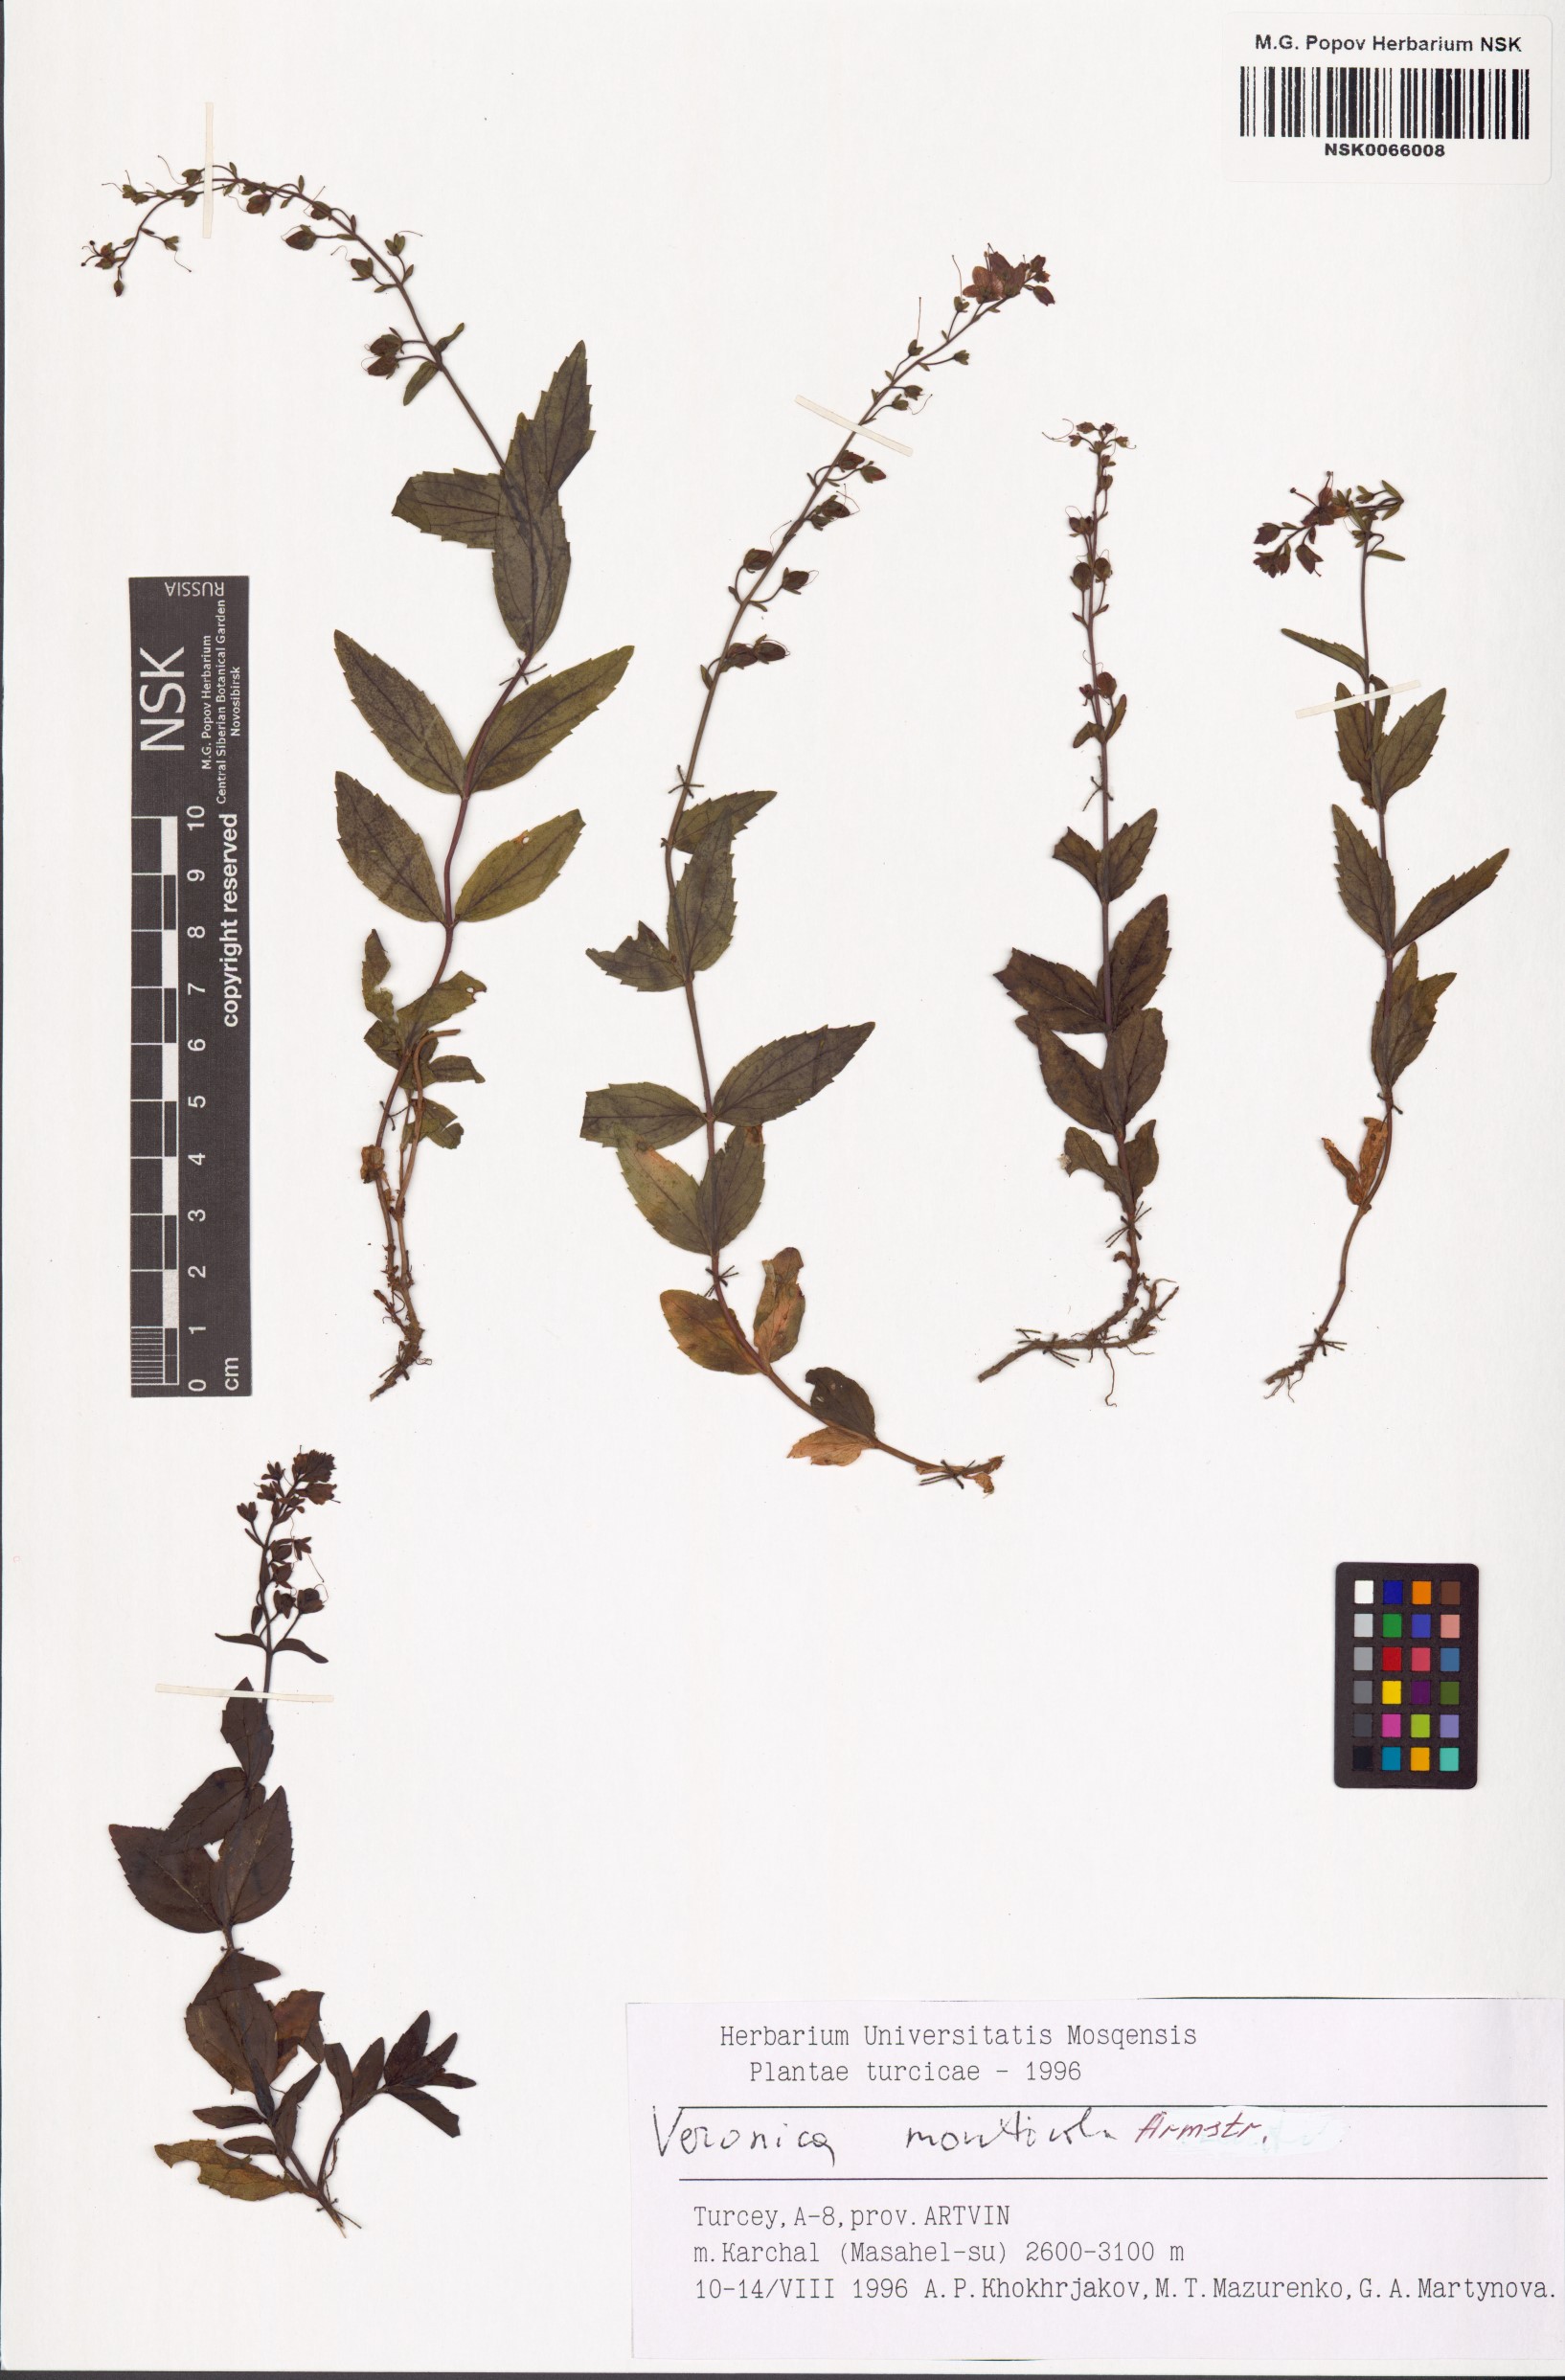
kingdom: Plantae
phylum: Tracheophyta
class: Magnoliopsida
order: Lamiales
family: Plantaginaceae
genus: Veronica
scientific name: Veronica monticola
